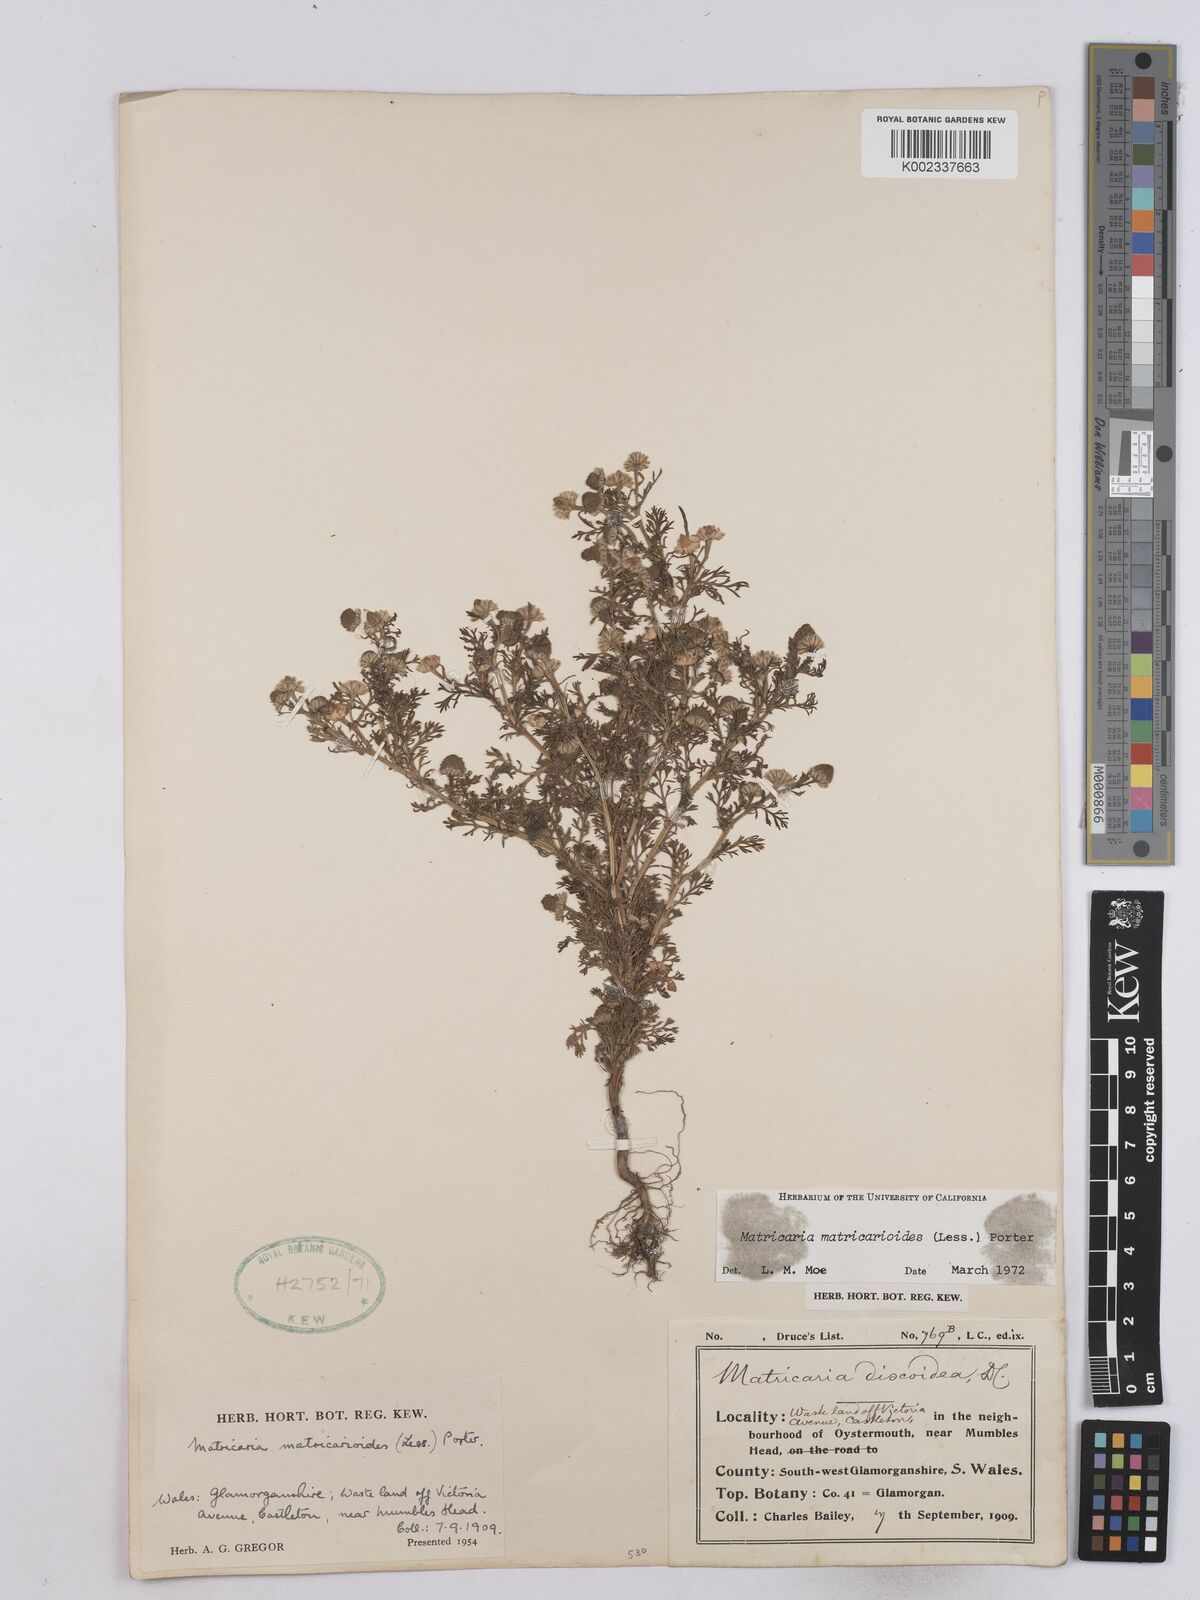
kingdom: Plantae
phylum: Tracheophyta
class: Magnoliopsida
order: Asterales
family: Asteraceae
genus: Matricaria
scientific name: Matricaria discoidea
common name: Disc mayweed
